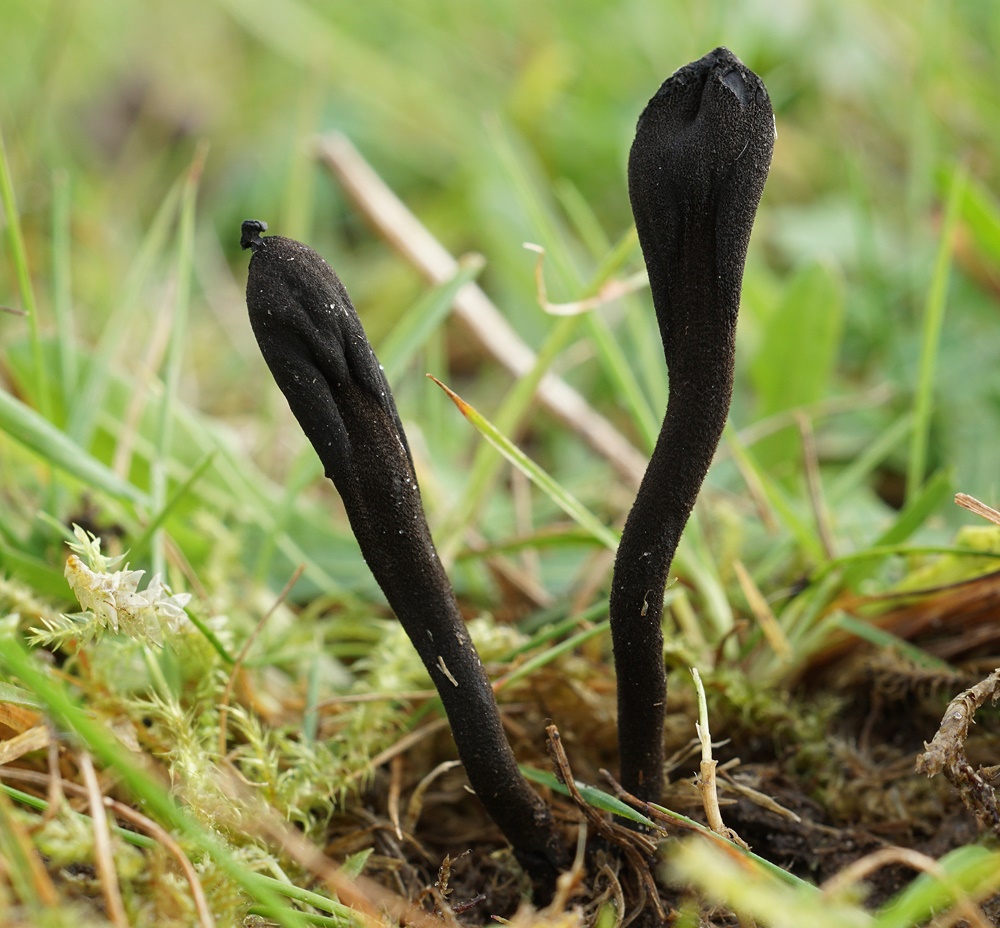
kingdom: Fungi
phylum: Ascomycota
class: Geoglossomycetes
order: Geoglossales
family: Geoglossaceae
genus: Trichoglossum
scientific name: Trichoglossum walteri
